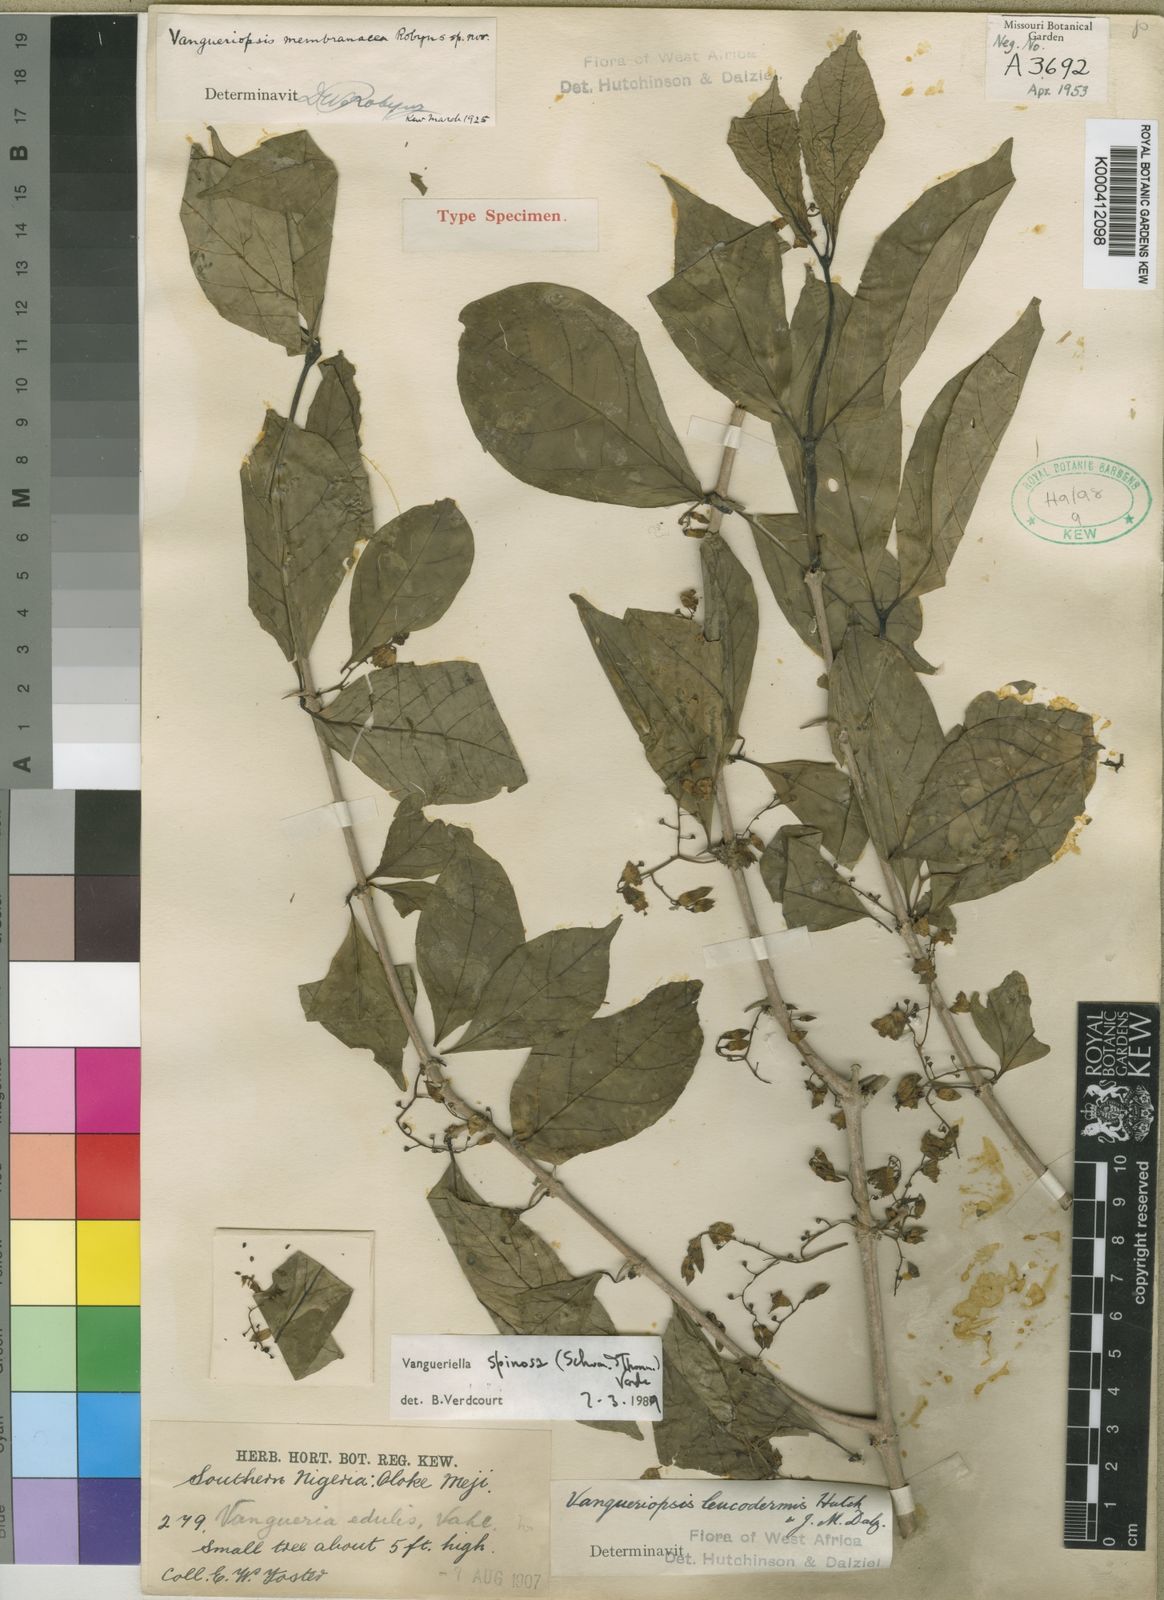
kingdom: Plantae
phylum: Tracheophyta
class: Magnoliopsida
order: Gentianales
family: Rubiaceae
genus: Vangueriella
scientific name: Vangueriella spinosa
